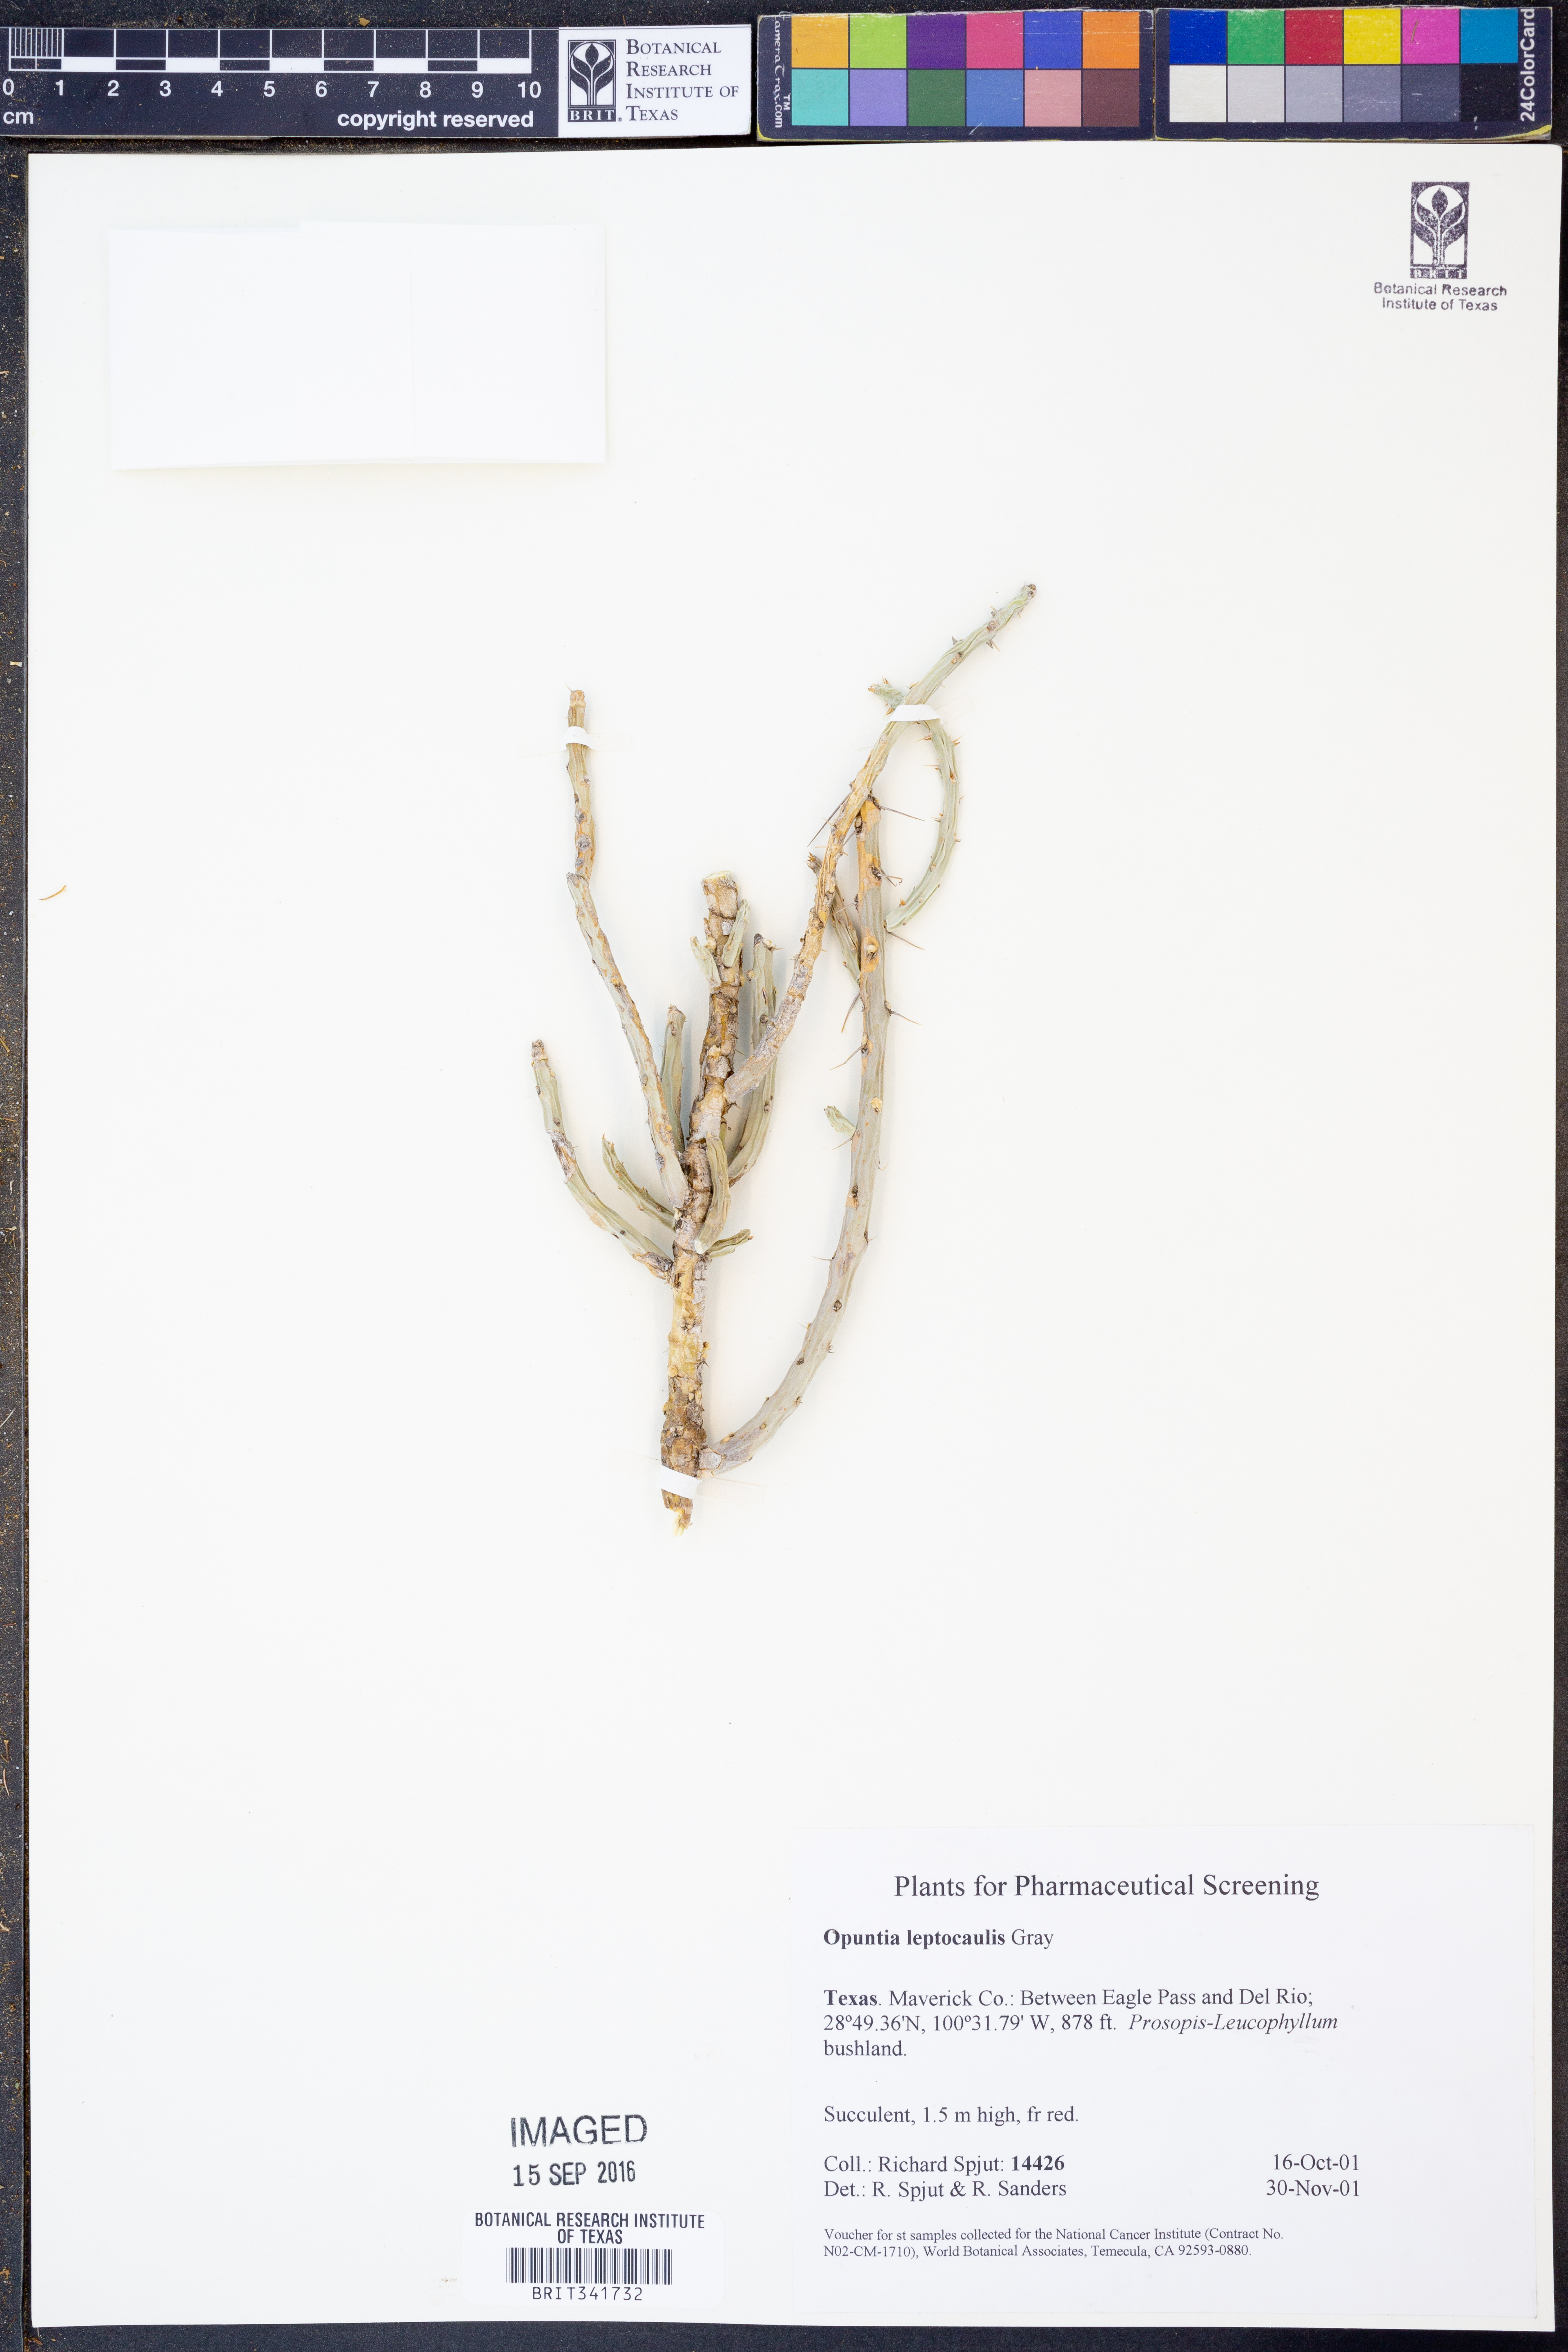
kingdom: Plantae
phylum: Tracheophyta
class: Magnoliopsida
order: Caryophyllales
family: Cactaceae
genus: Cylindropuntia
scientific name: Cylindropuntia leptocaulis
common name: Christmas cactus
